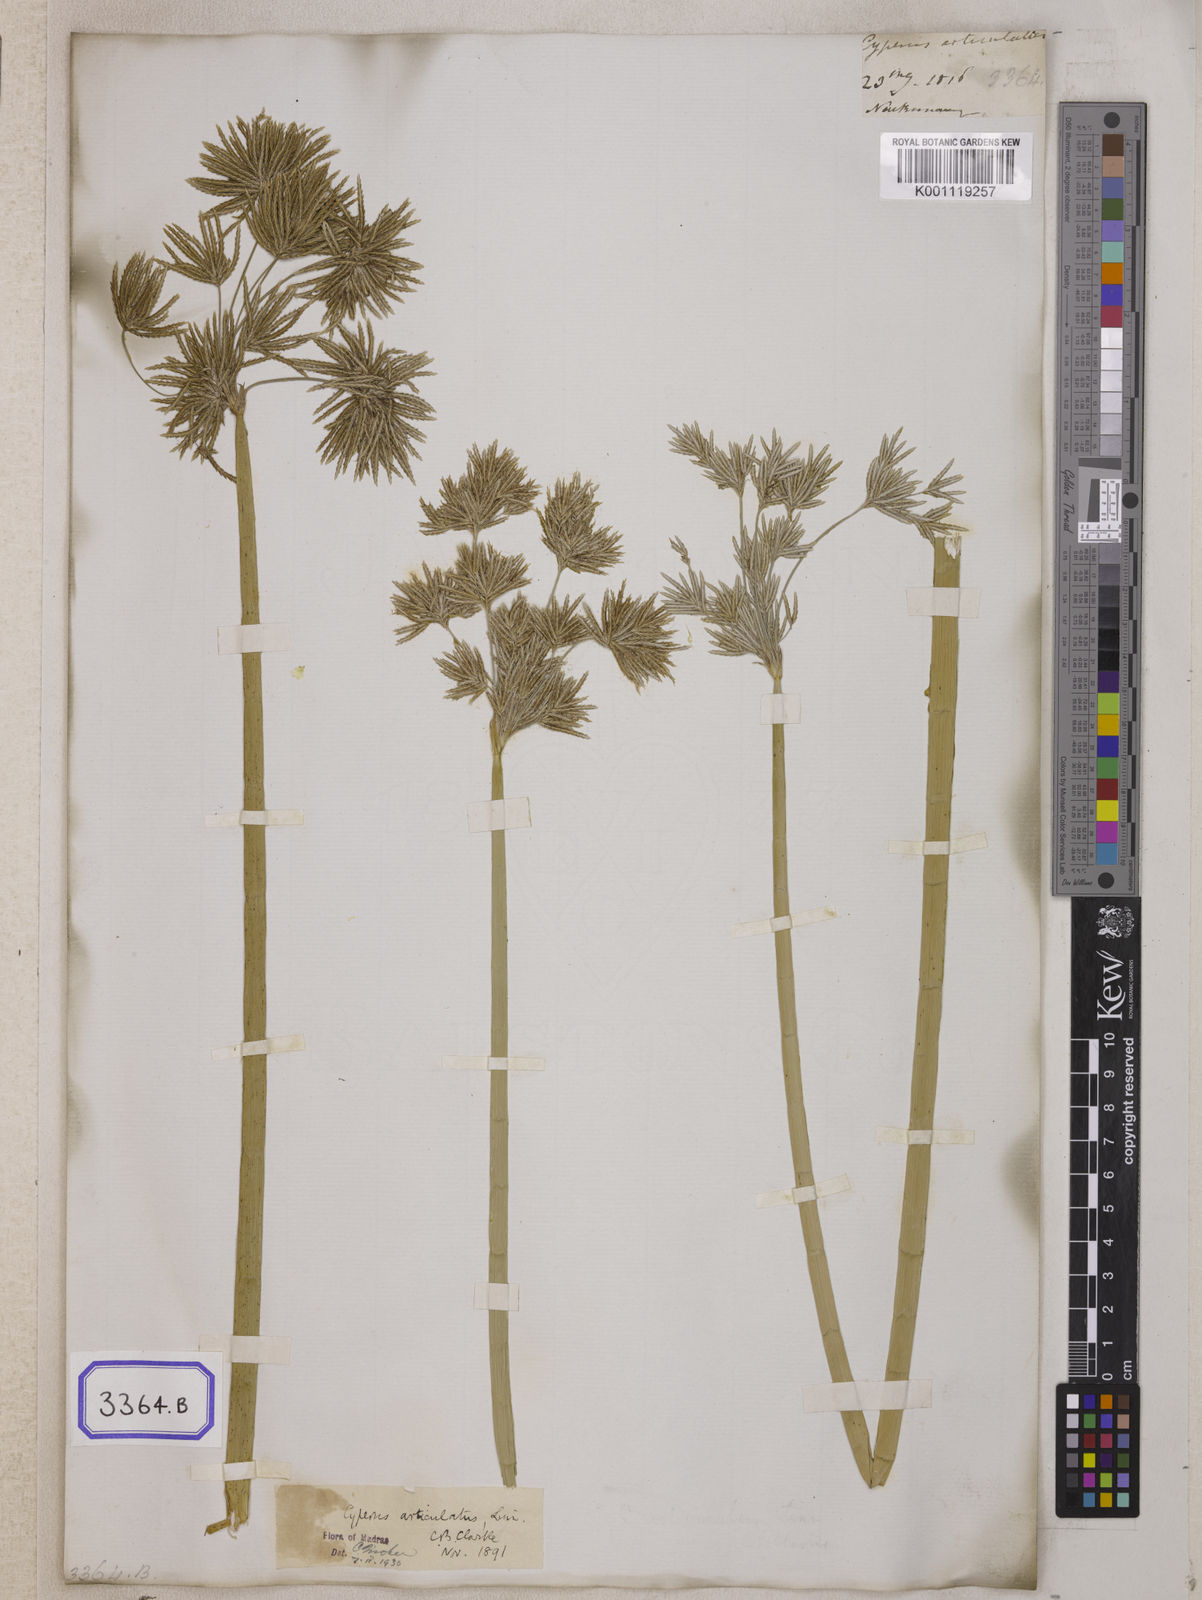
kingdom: Plantae
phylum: Tracheophyta
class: Liliopsida
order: Poales
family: Cyperaceae
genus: Cyperus
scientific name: Cyperus
